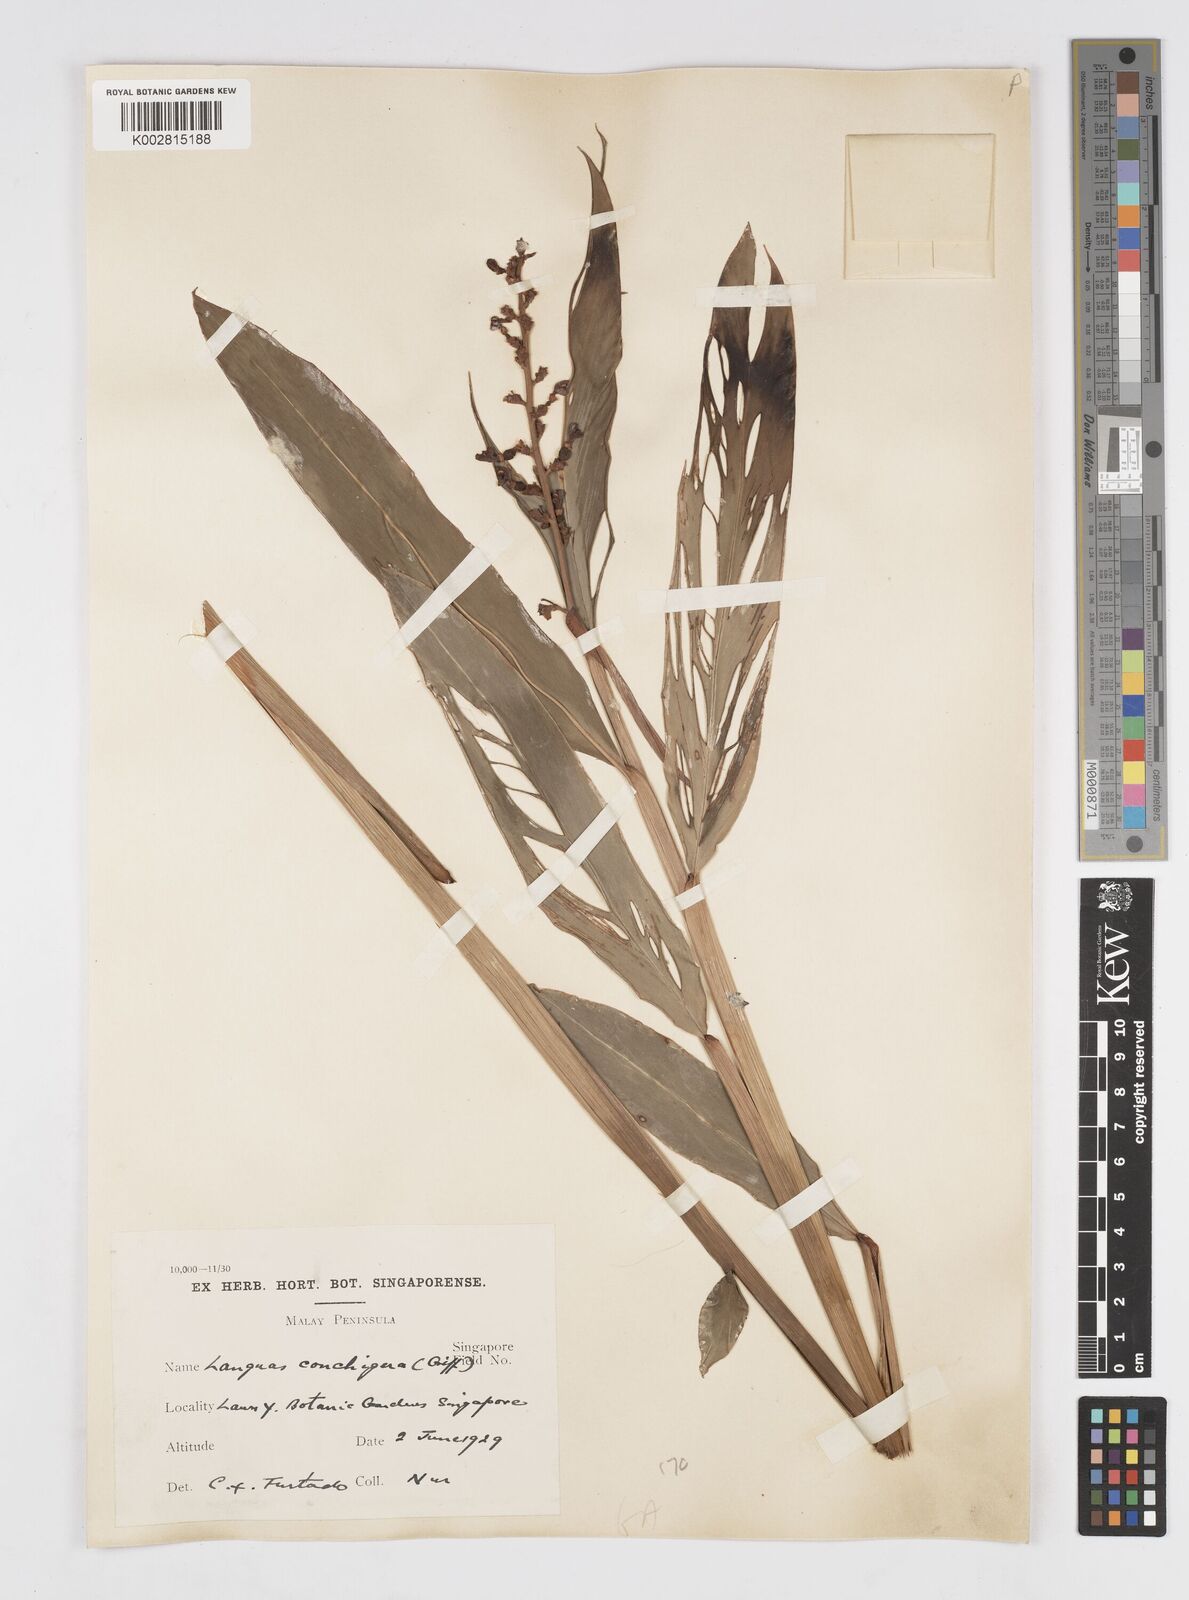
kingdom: Plantae
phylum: Tracheophyta
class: Liliopsida
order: Zingiberales
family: Zingiberaceae
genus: Alpinia
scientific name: Alpinia conchigera
